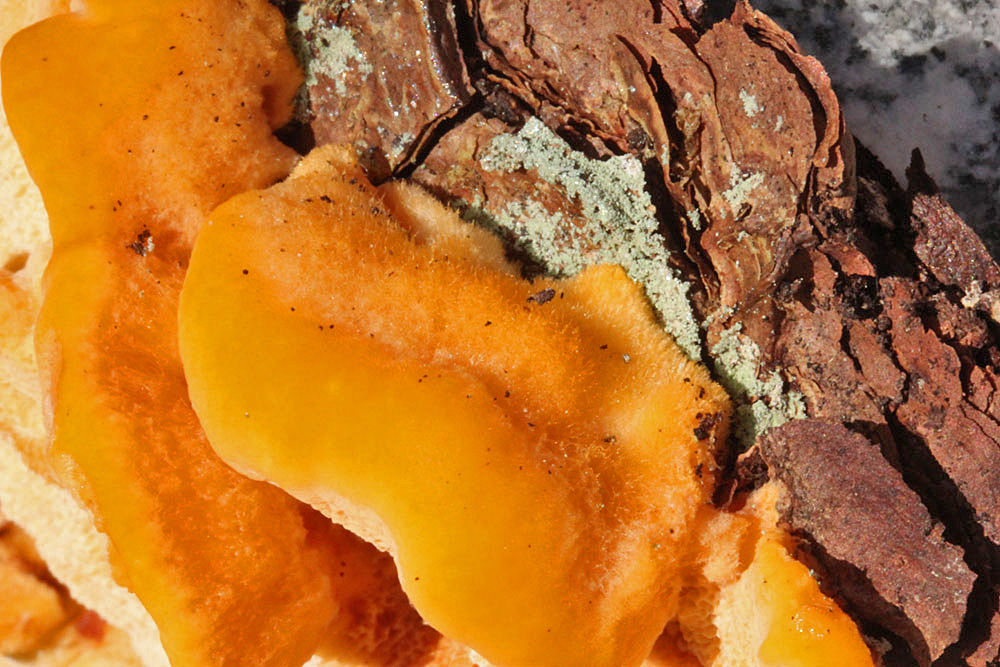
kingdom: Fungi
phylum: Basidiomycota
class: Agaricomycetes
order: Polyporales
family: Pycnoporellaceae
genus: Pycnoporellus
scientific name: Pycnoporellus fulgens
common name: flammeporesvamp
